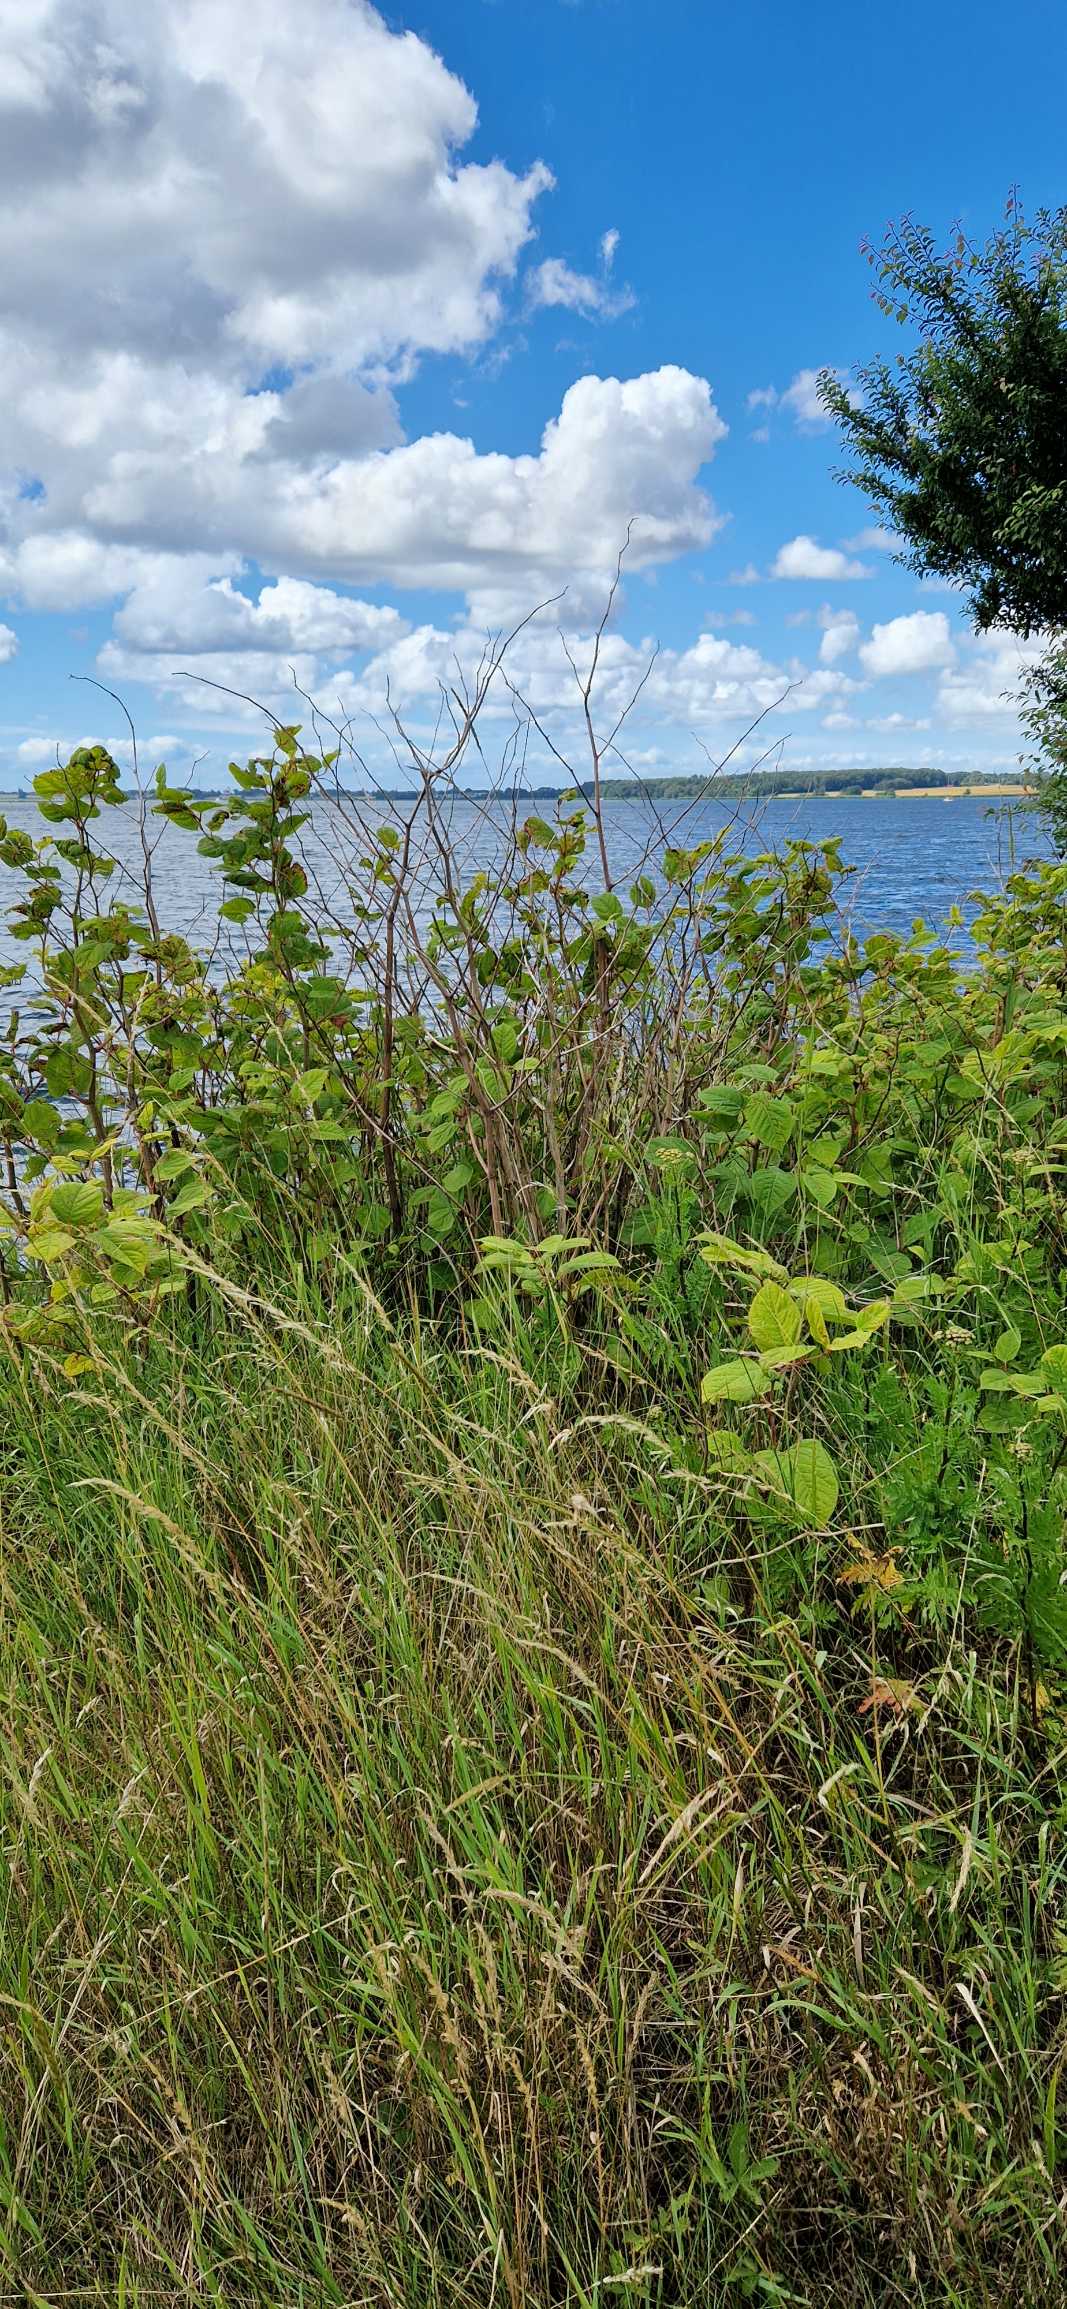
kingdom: Plantae
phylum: Tracheophyta
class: Magnoliopsida
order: Caryophyllales
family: Polygonaceae
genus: Reynoutria
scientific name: Reynoutria japonica
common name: Japan-pileurt
